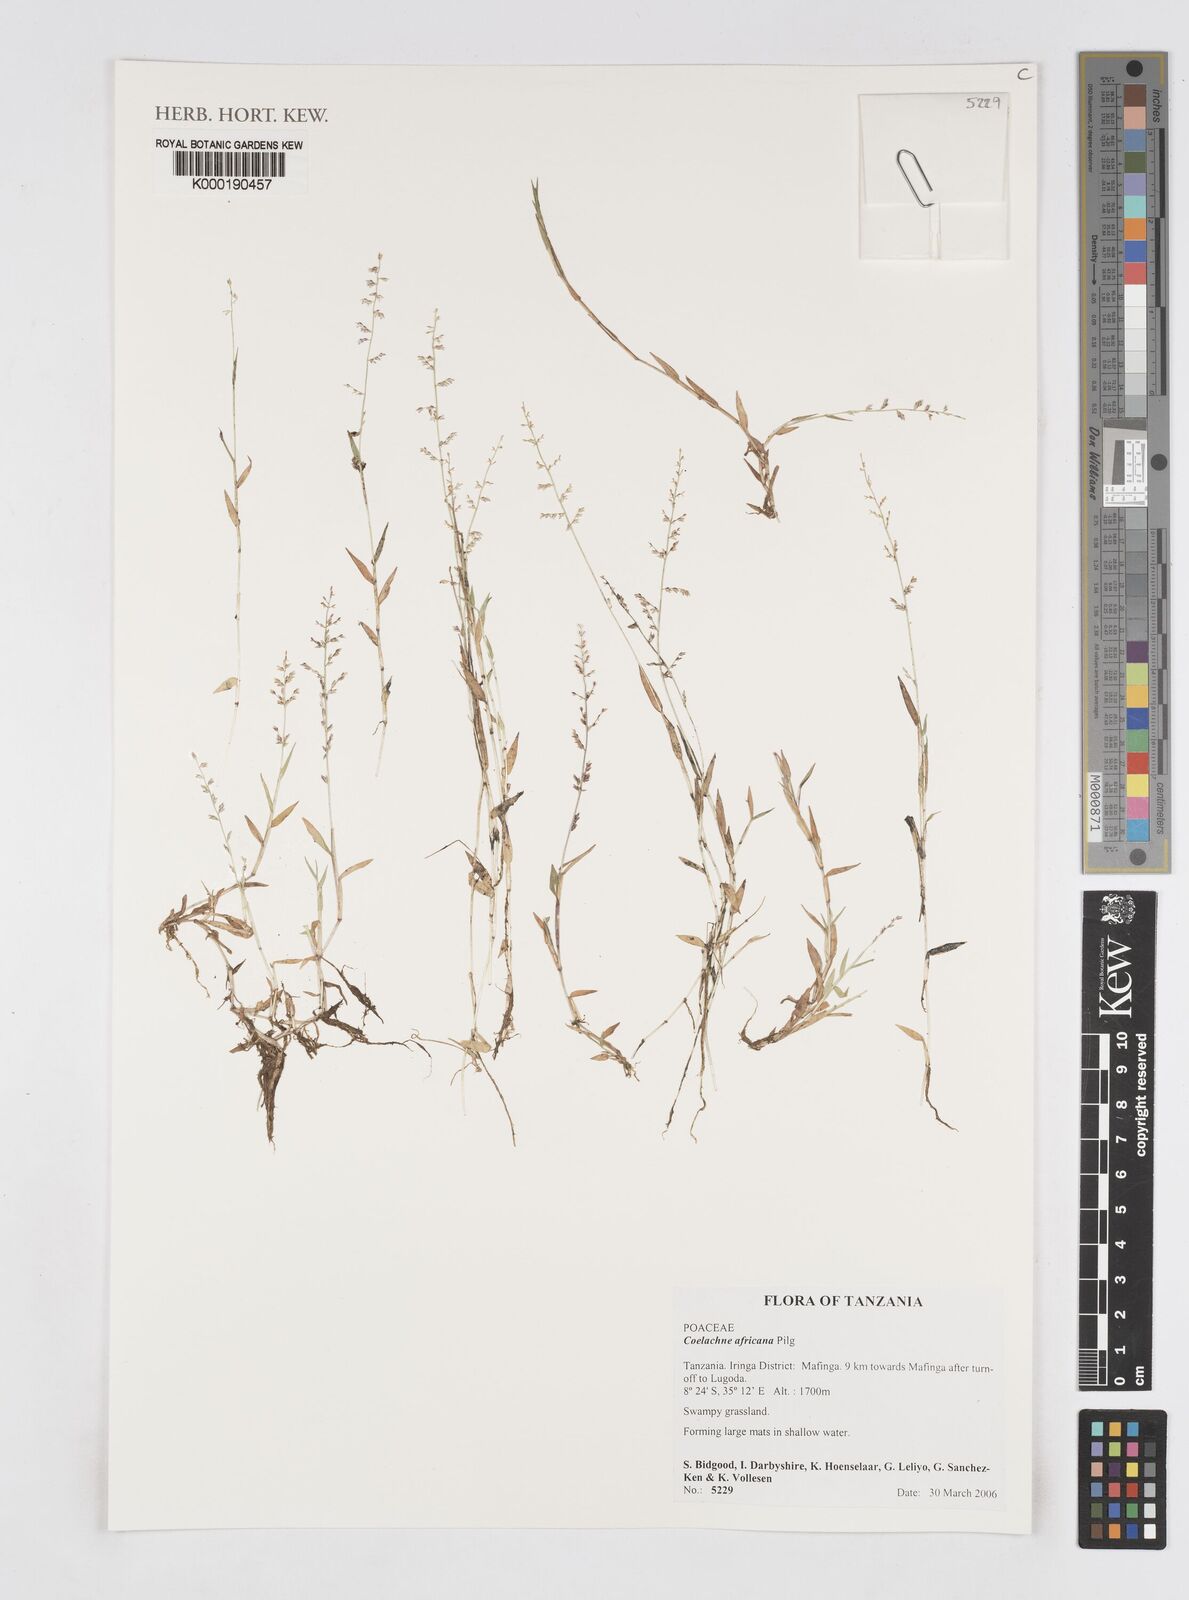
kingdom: Plantae
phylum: Tracheophyta
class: Liliopsida
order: Poales
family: Poaceae
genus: Coelachne
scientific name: Coelachne africana
